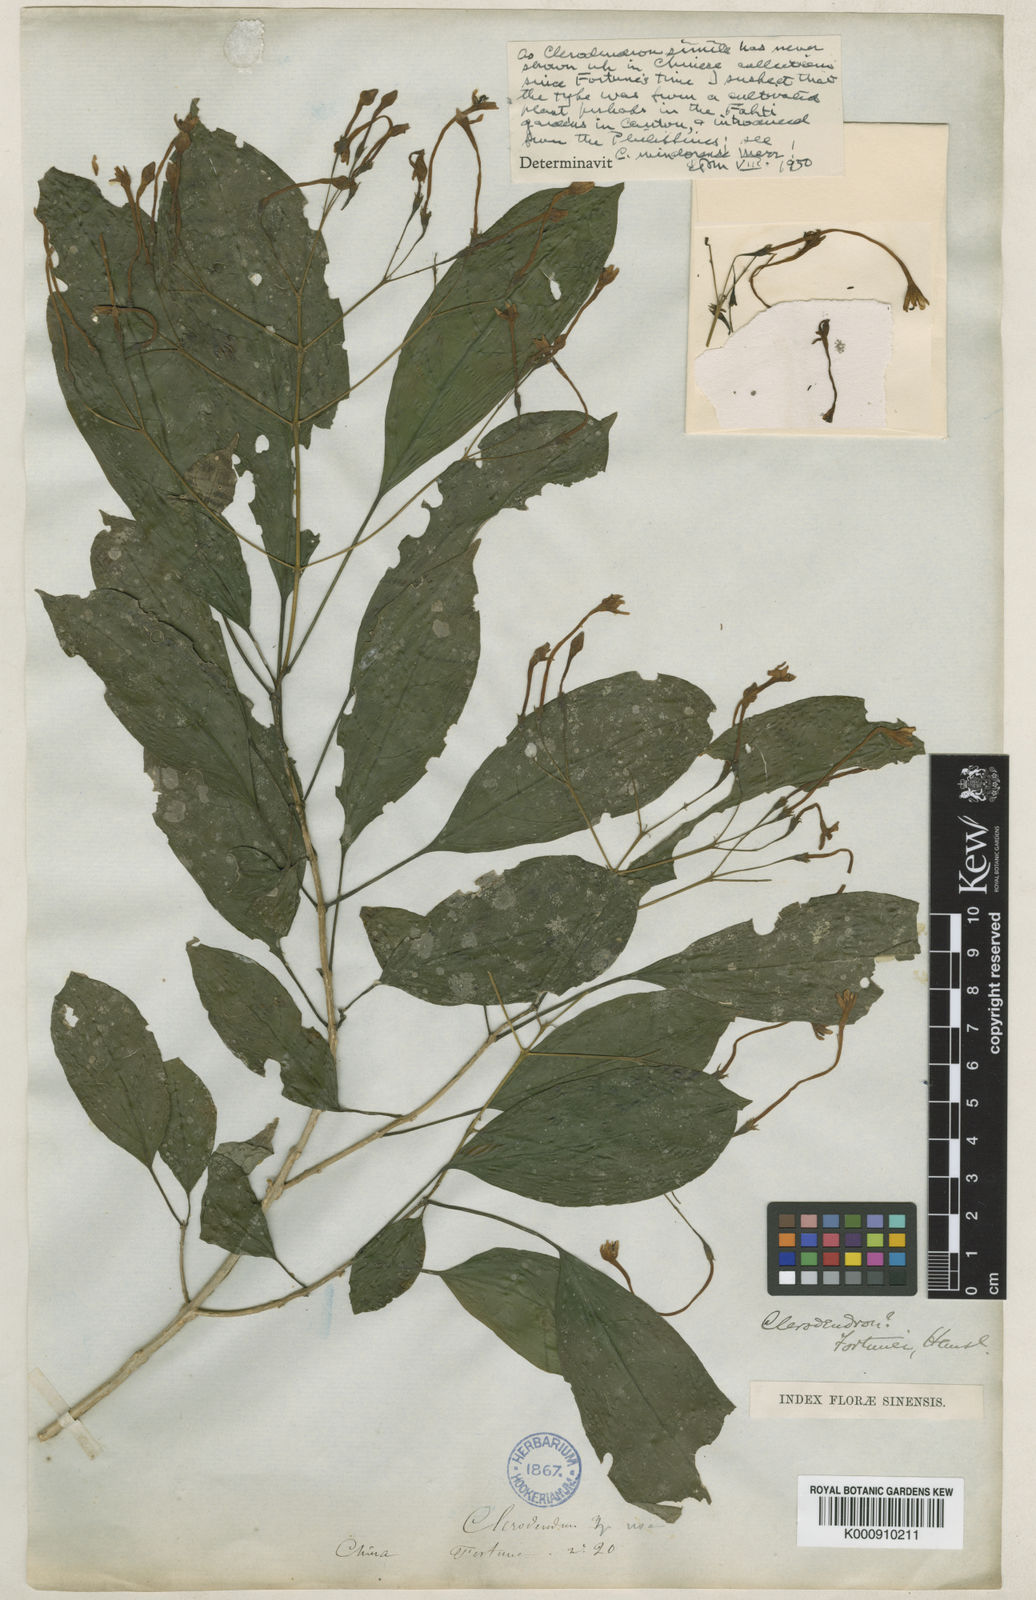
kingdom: Plantae
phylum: Tracheophyta
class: Magnoliopsida
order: Lamiales
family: Lamiaceae
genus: Clerodendrum
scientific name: Clerodendrum fortunei
